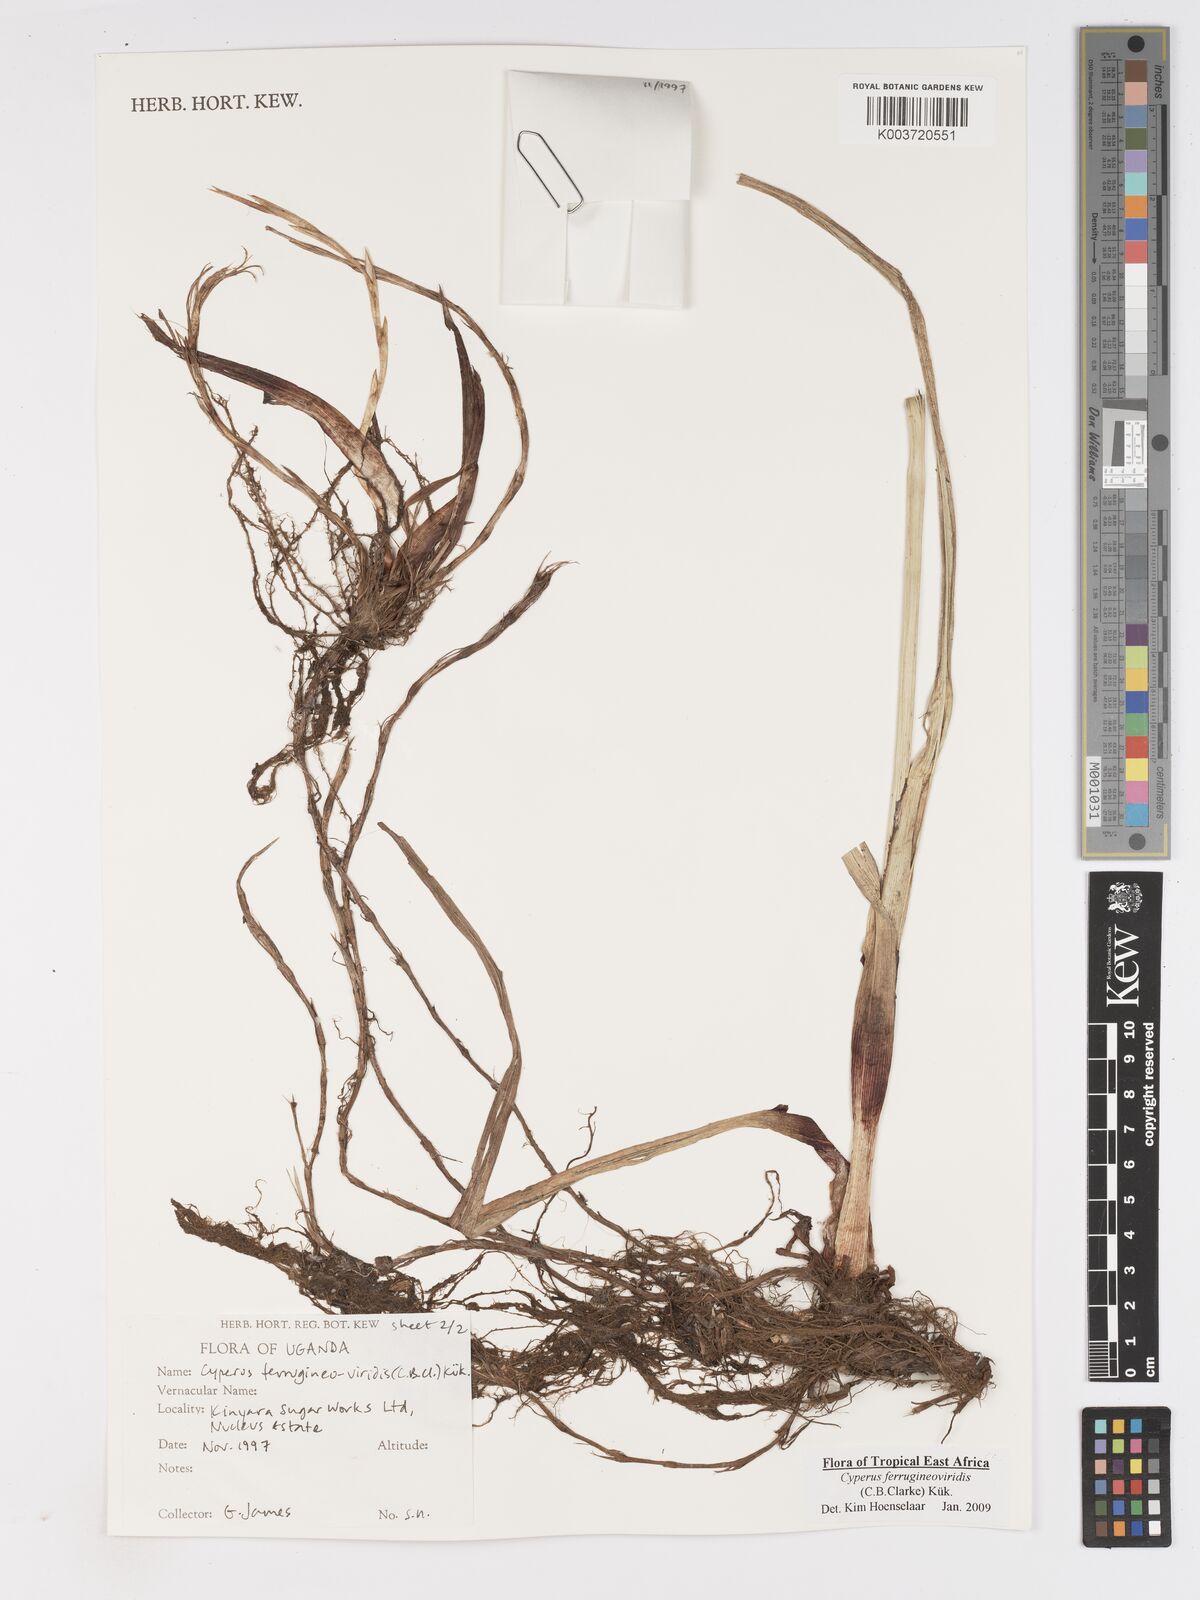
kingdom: Plantae
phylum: Tracheophyta
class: Liliopsida
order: Poales
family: Cyperaceae
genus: Cyperus
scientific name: Cyperus ferrugineoviridis
